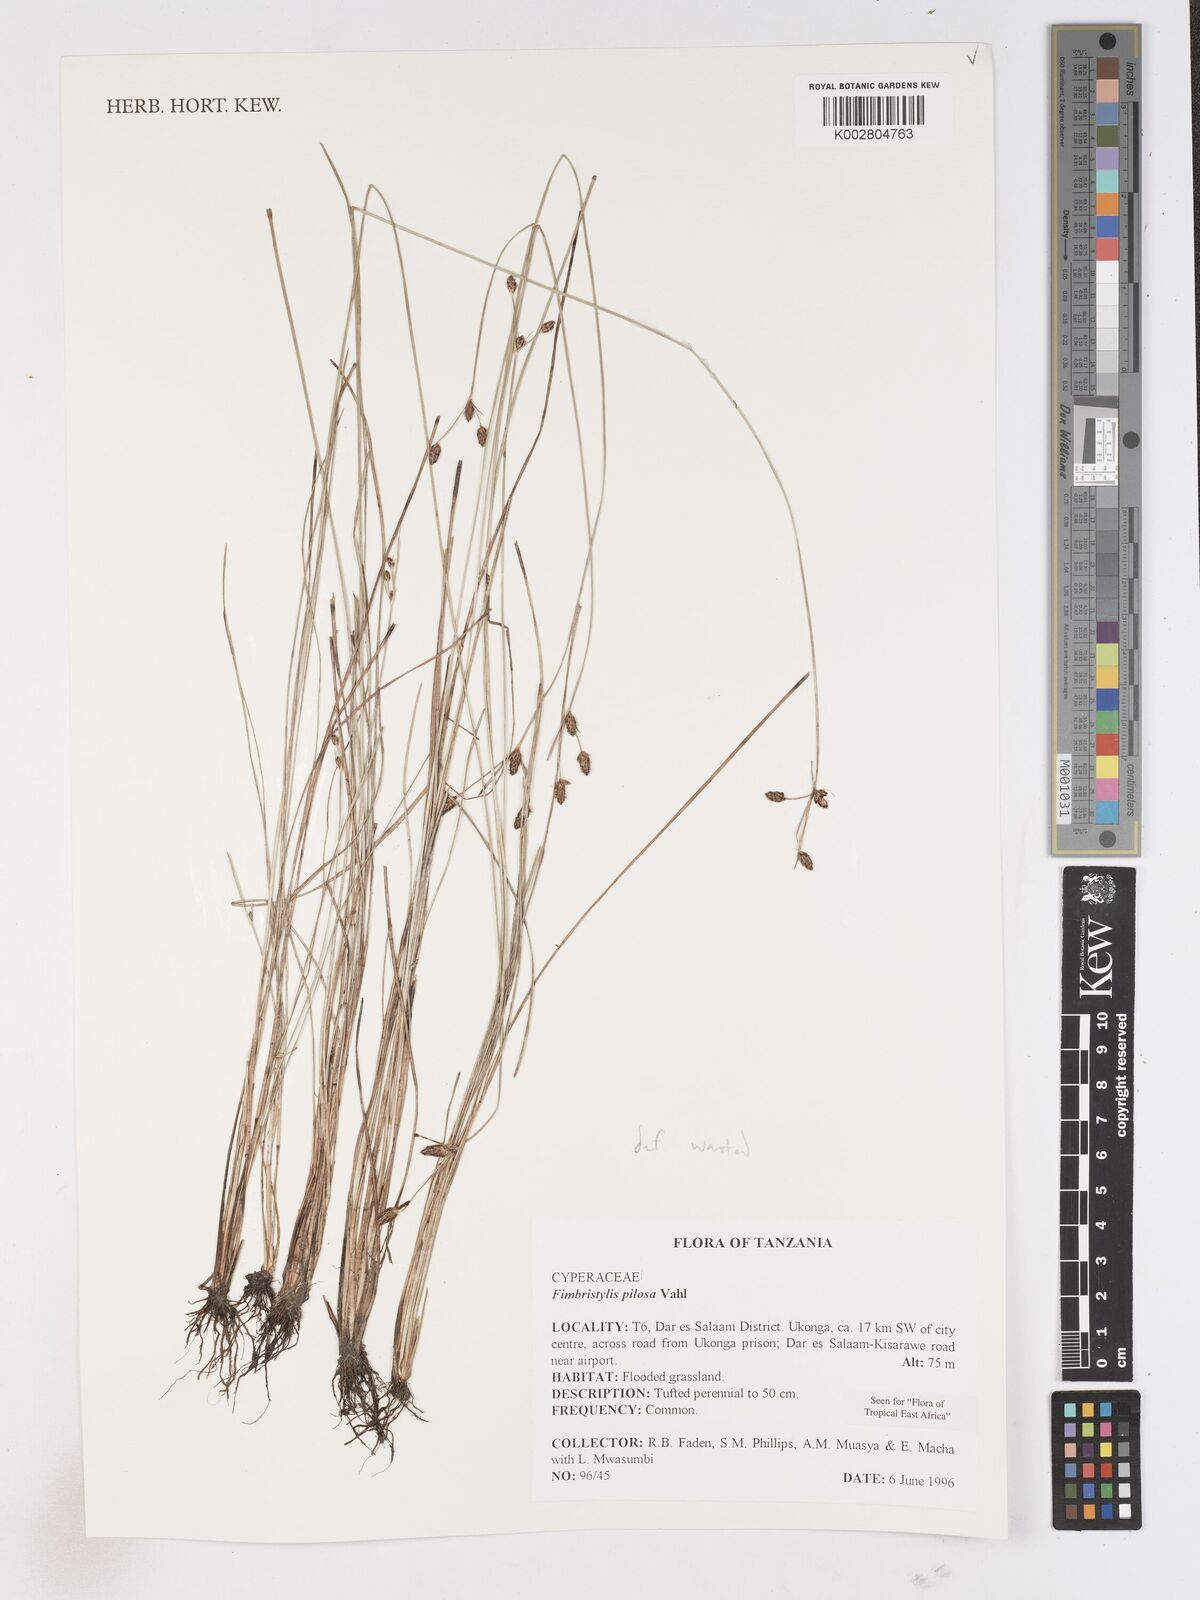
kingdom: Plantae
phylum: Tracheophyta
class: Liliopsida
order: Poales
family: Cyperaceae
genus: Fimbristylis
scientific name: Fimbristylis pilosa
